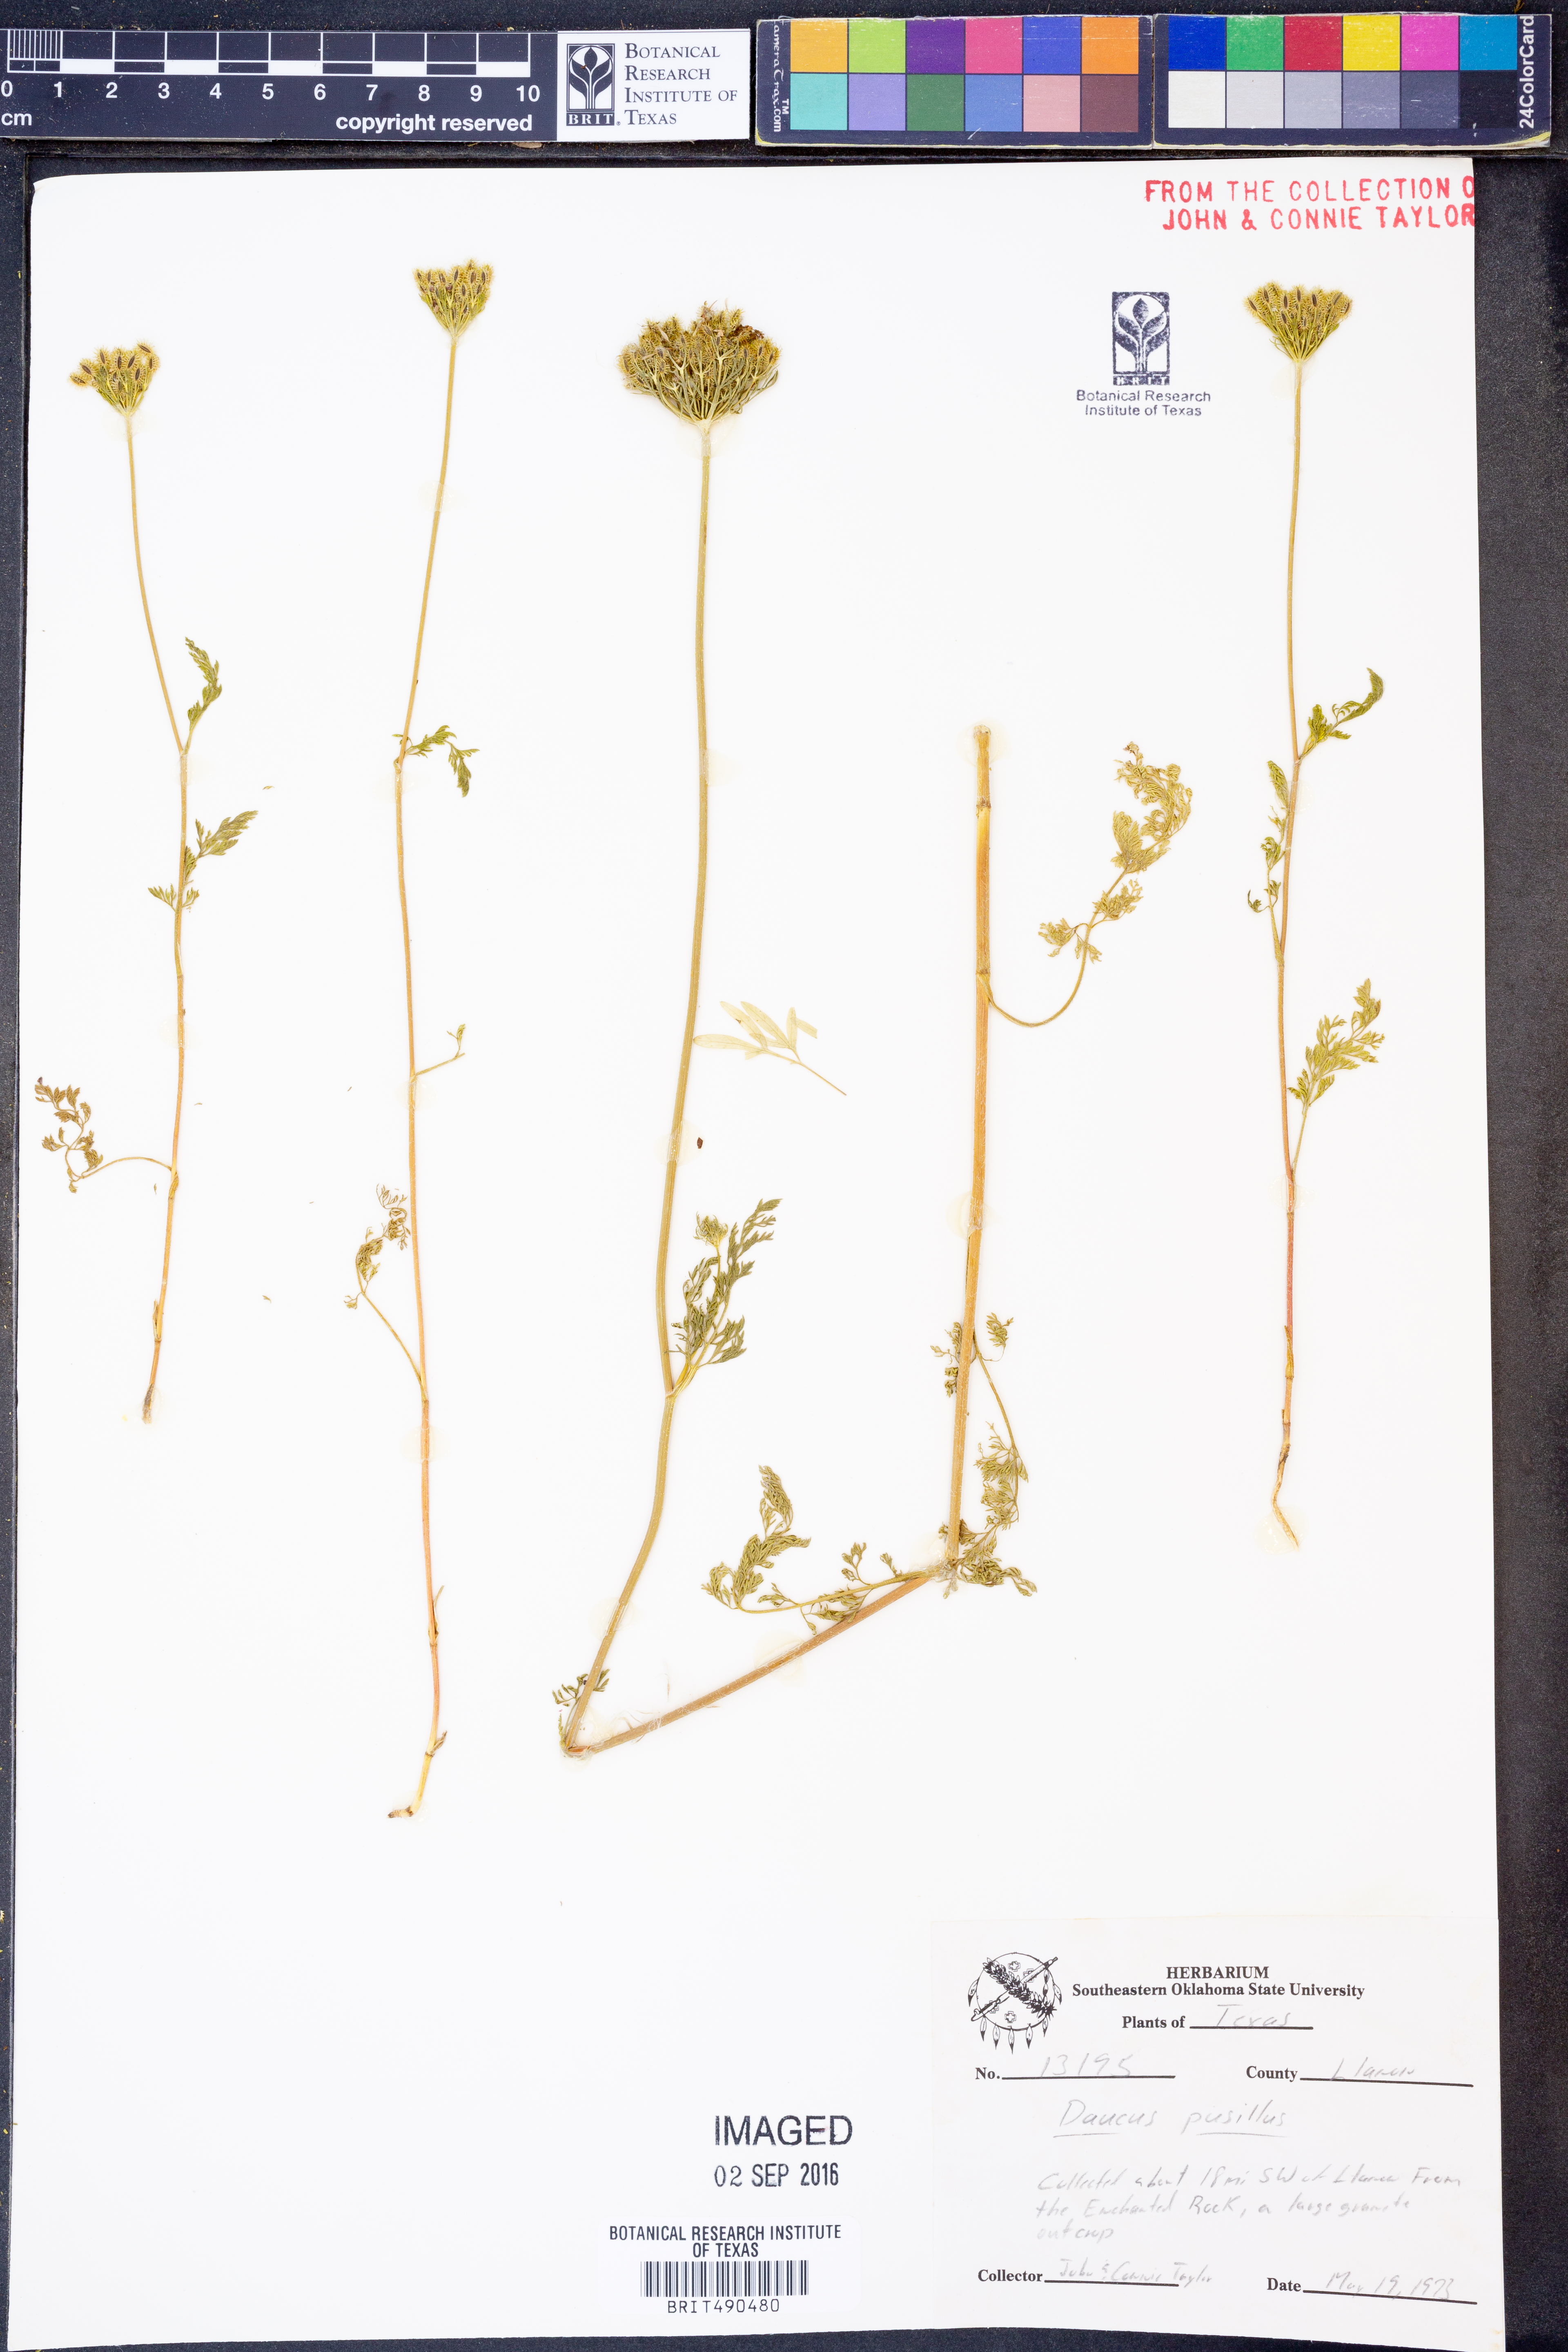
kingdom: Plantae
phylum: Tracheophyta
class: Magnoliopsida
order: Apiales
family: Apiaceae
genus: Daucus
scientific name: Daucus pusillus
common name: Southwest wild carrot
